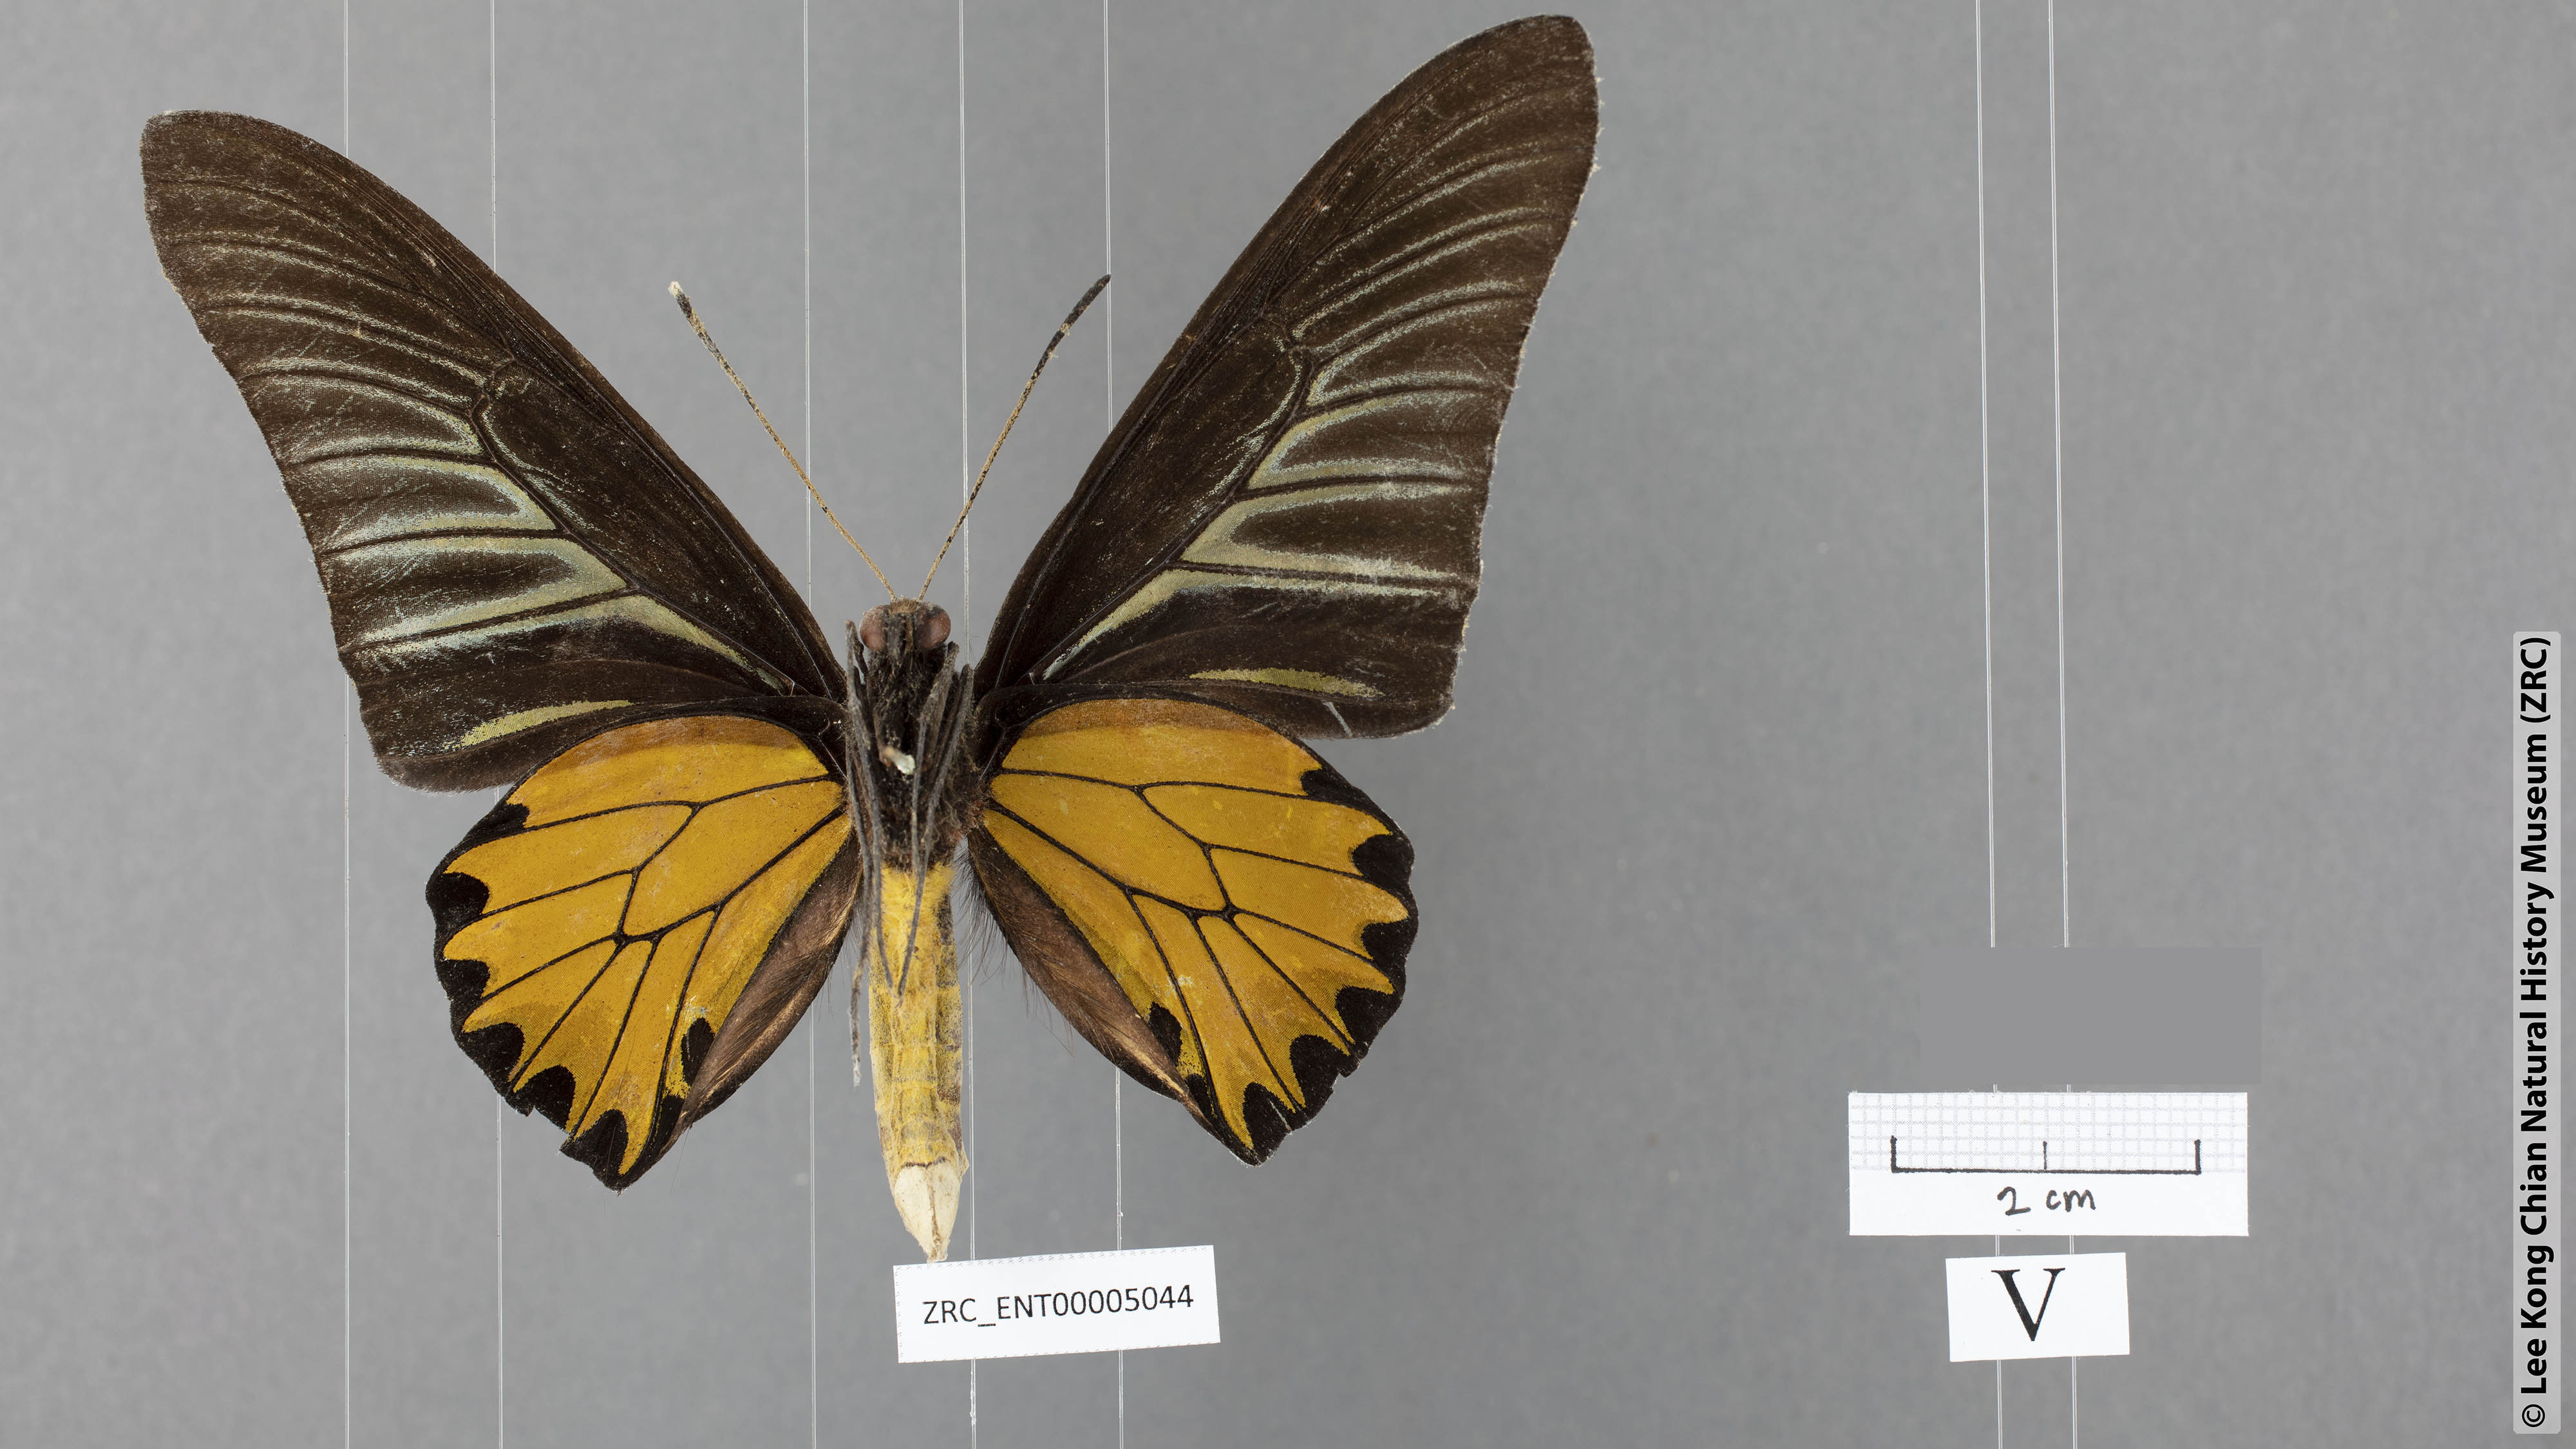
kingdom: Animalia
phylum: Arthropoda
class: Insecta
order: Lepidoptera
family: Papilionidae
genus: Troides
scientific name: Troides aeacus
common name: Golden birdwing
